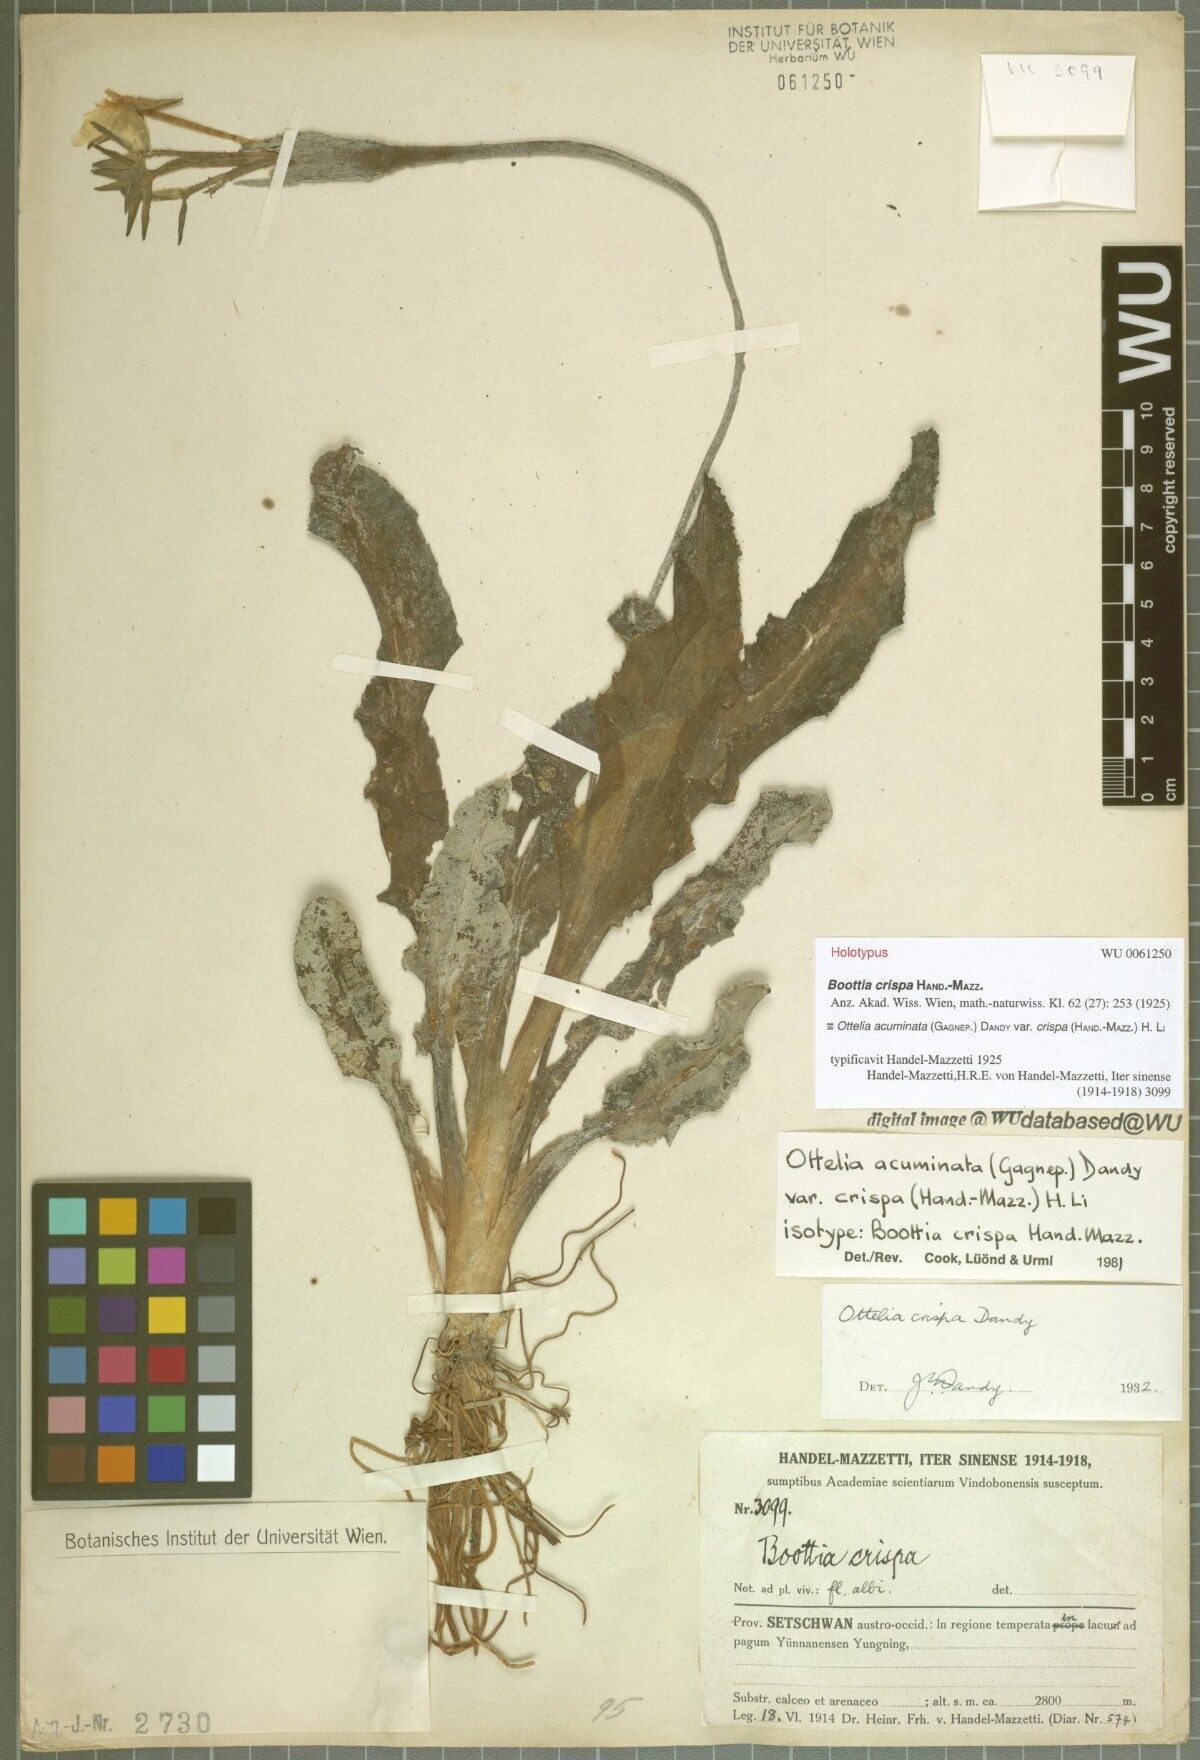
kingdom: Plantae
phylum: Tracheophyta
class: Liliopsida
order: Alismatales
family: Hydrocharitaceae
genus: Ottelia
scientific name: Ottelia acuminata
